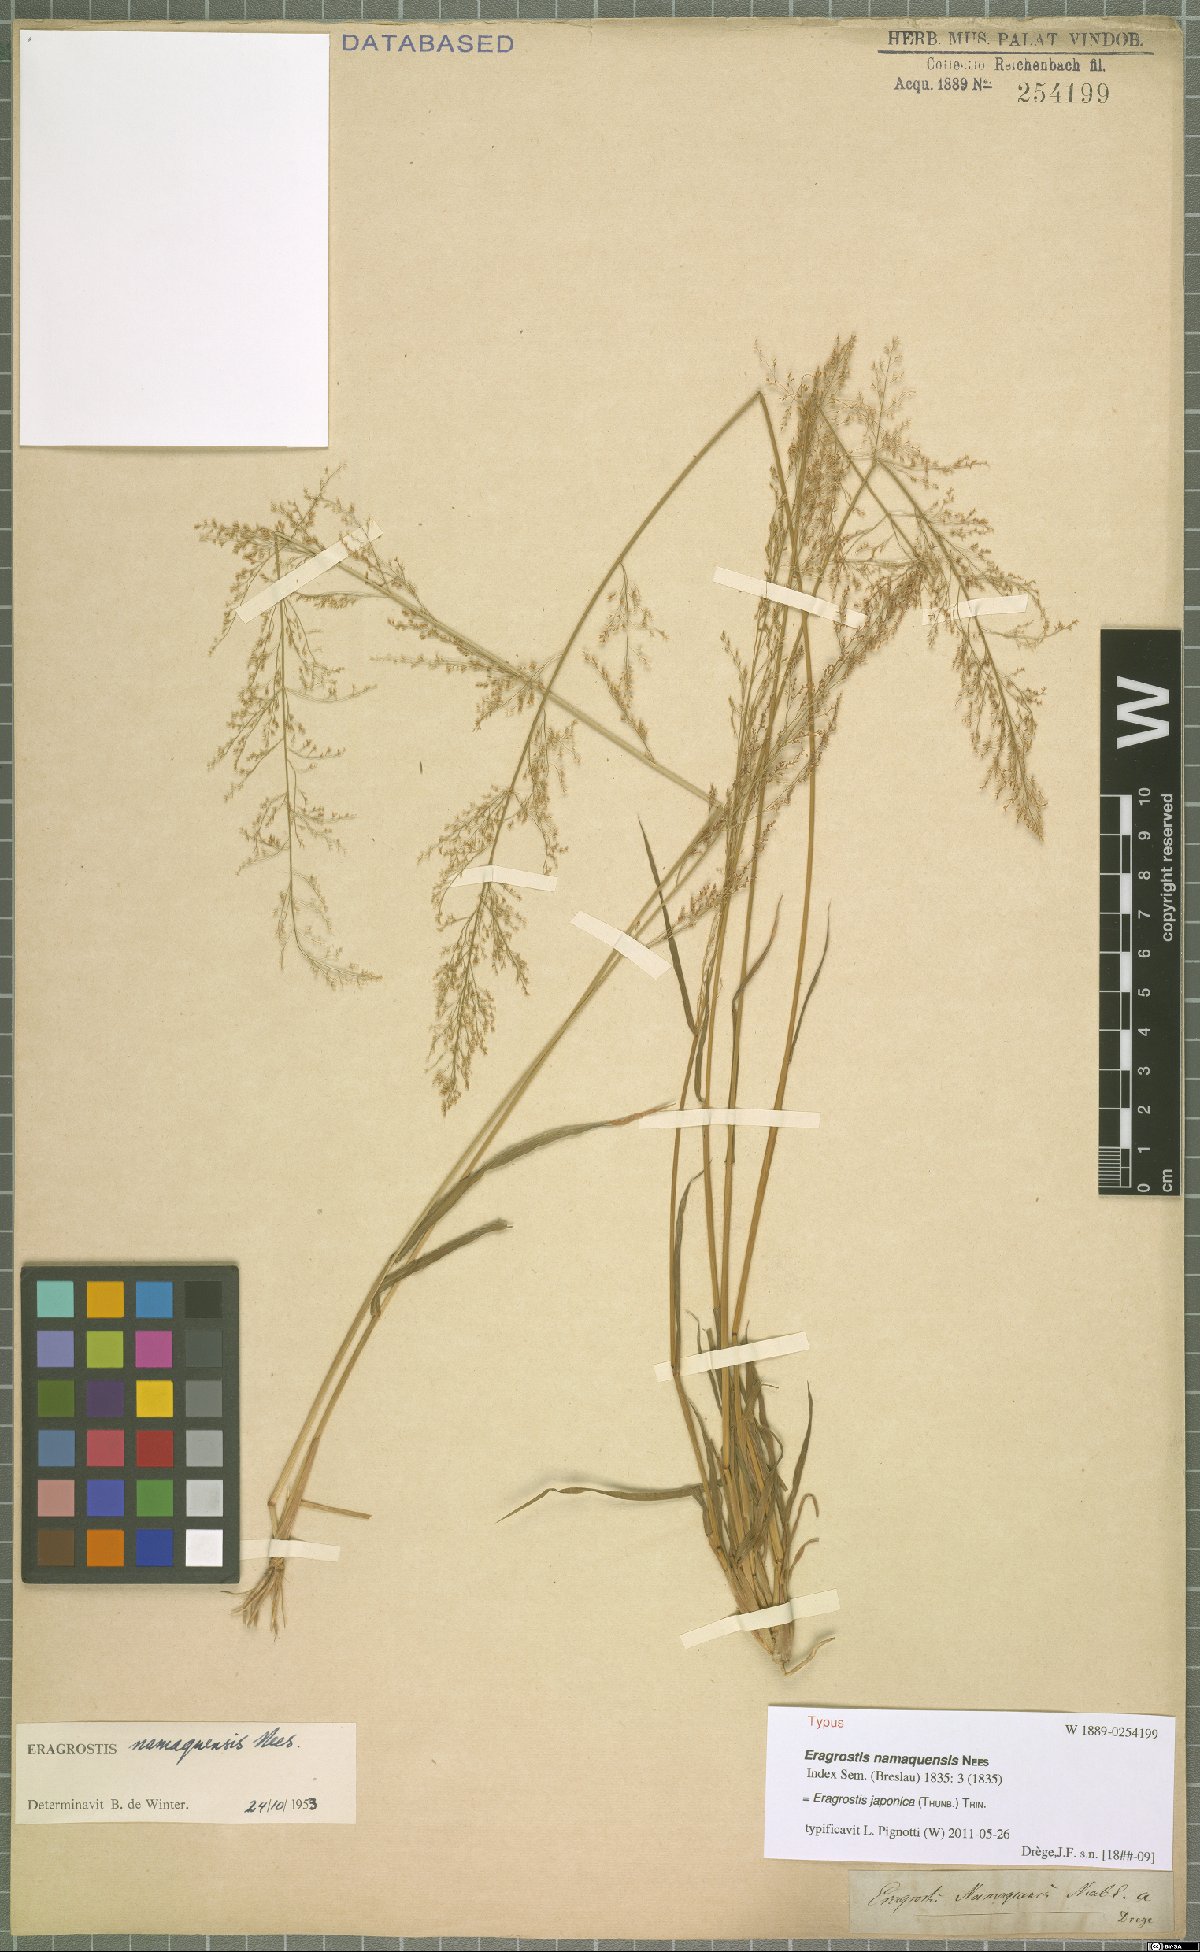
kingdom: Plantae
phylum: Tracheophyta
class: Liliopsida
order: Poales
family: Poaceae
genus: Eragrostis
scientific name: Eragrostis japonica
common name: Pond lovegrass
